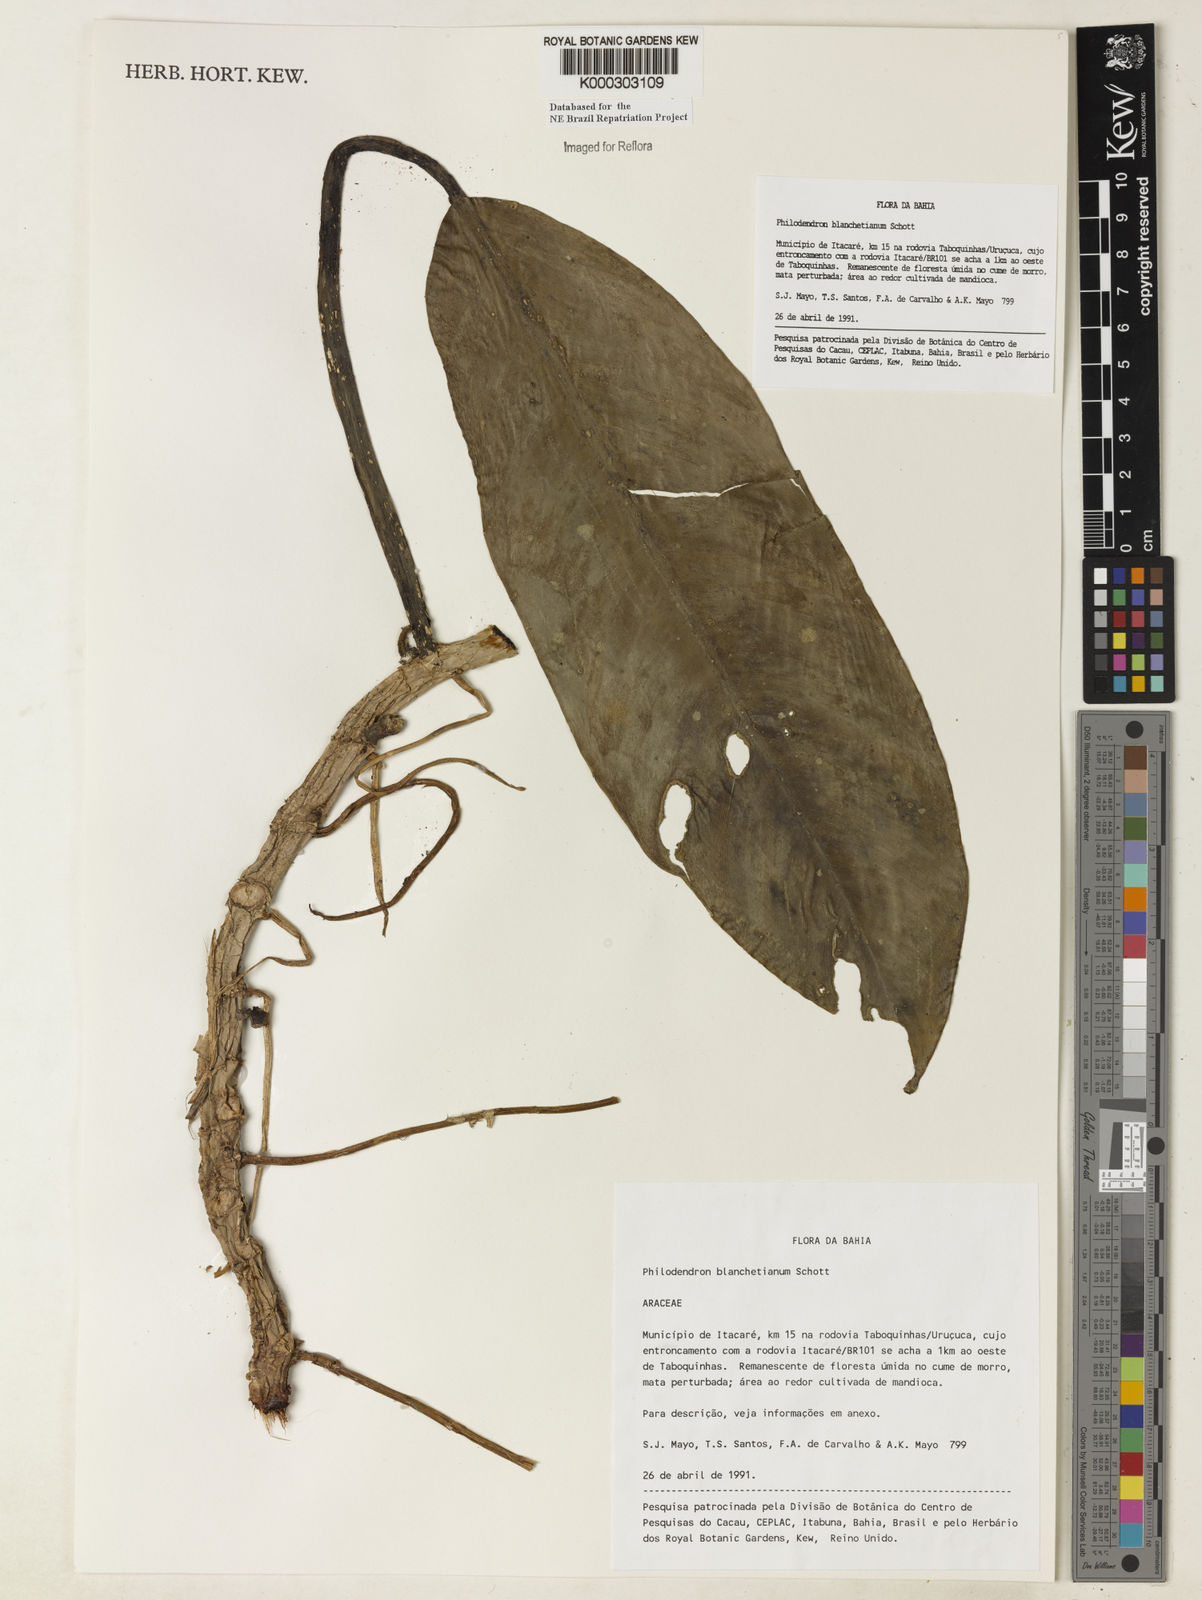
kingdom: Plantae
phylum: Tracheophyta
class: Liliopsida
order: Alismatales
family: Araceae
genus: Philodendron
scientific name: Philodendron blanchetianum
